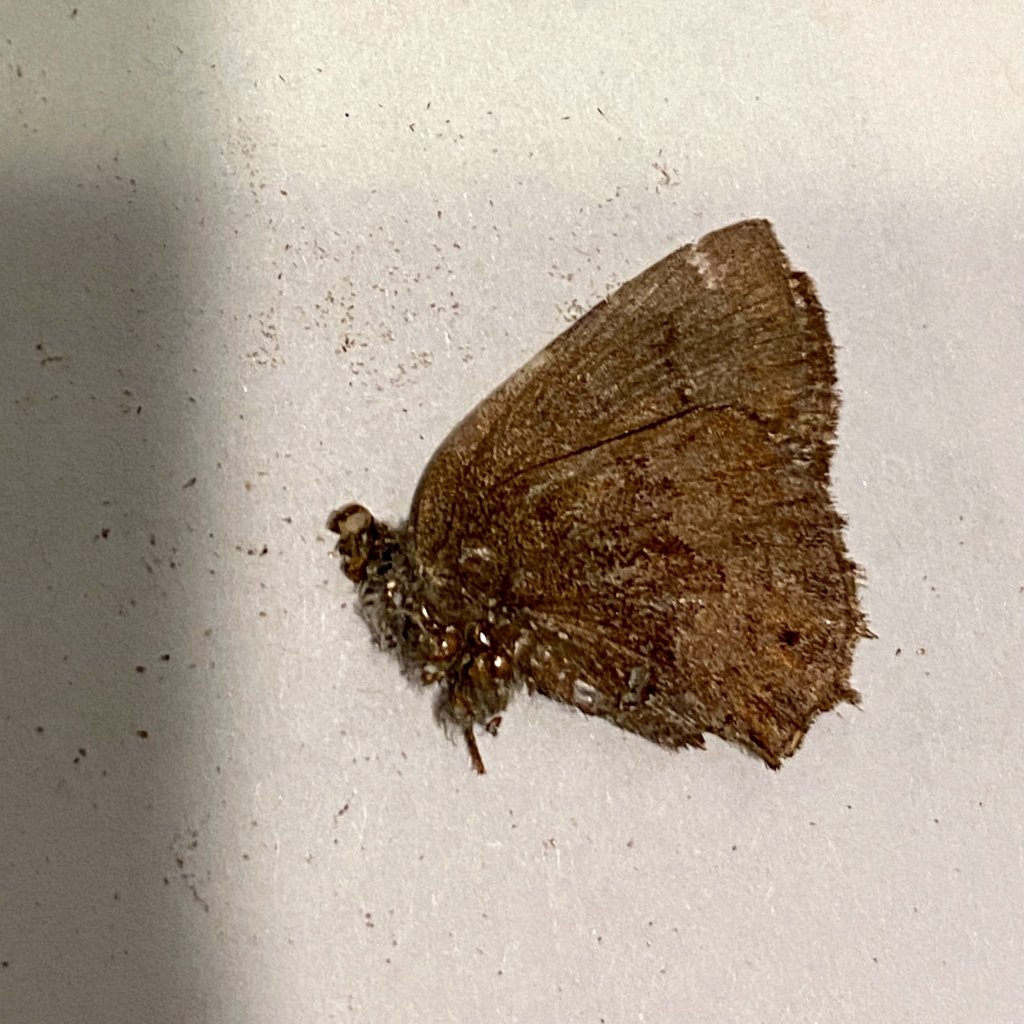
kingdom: Animalia
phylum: Arthropoda
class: Insecta
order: Lepidoptera
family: Lycaenidae
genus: Thecla
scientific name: Thecla irus
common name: Frosted Elfin
